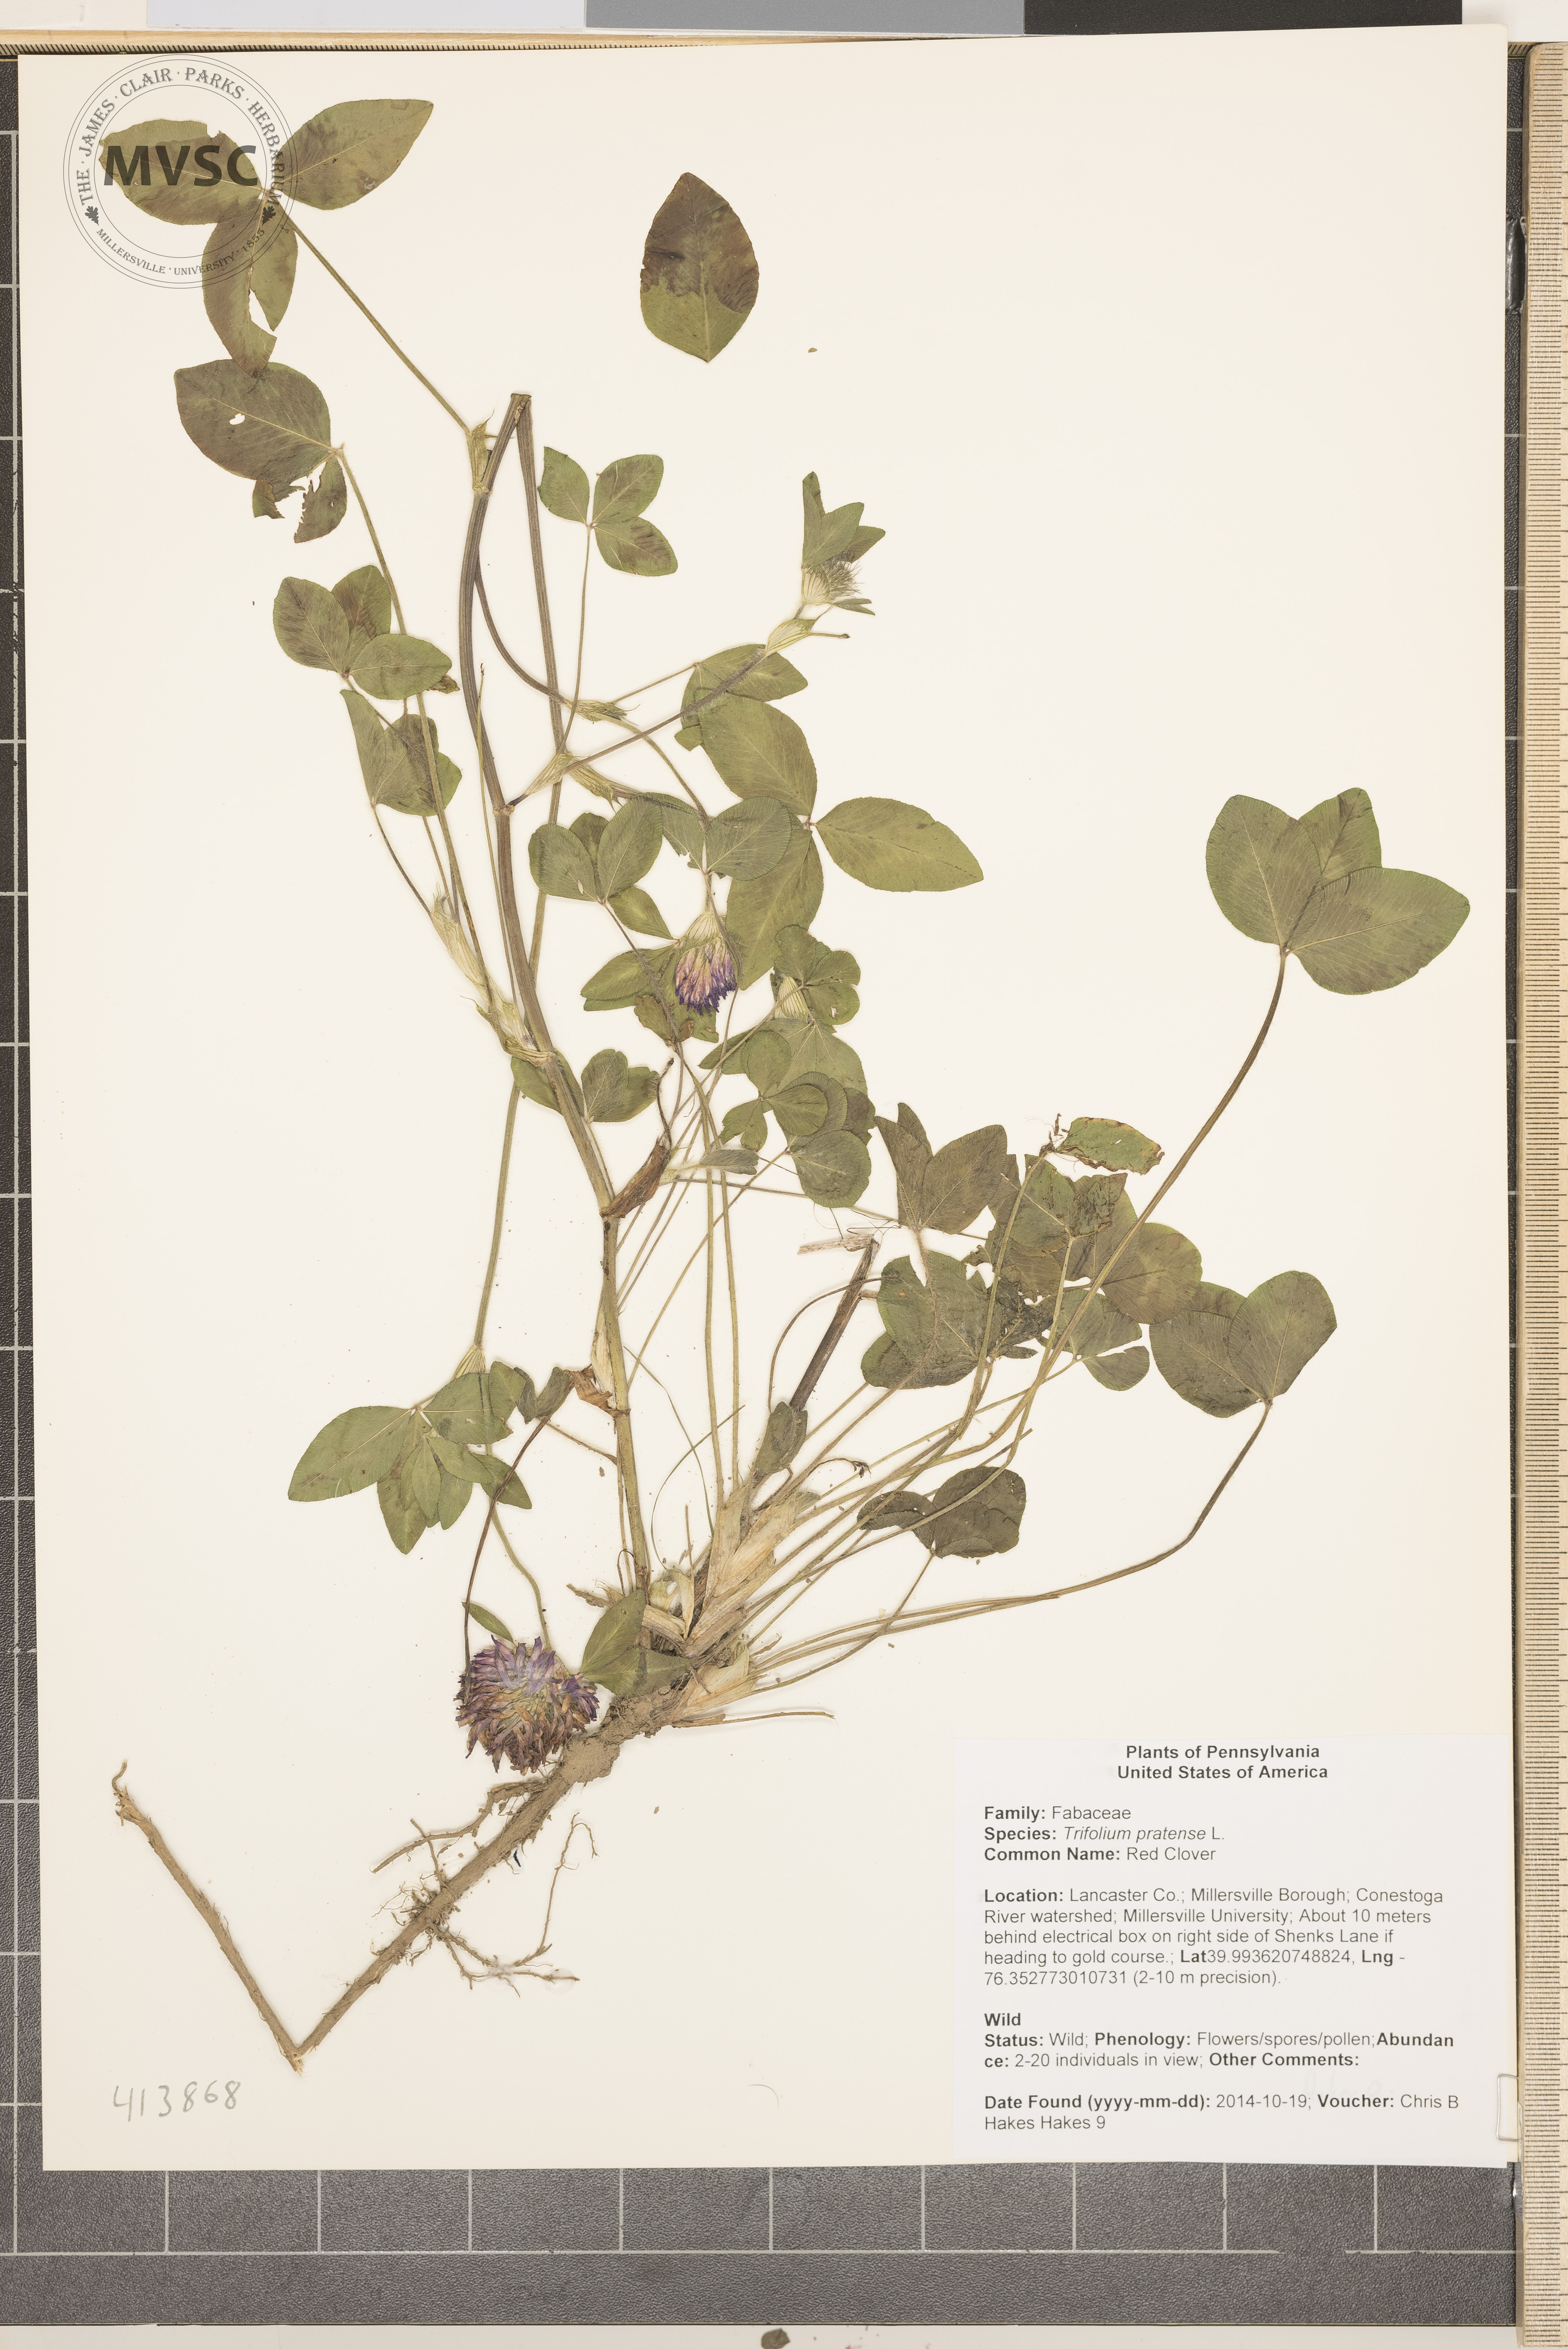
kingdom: Plantae
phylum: Tracheophyta
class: Magnoliopsida
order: Fabales
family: Fabaceae
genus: Trifolium
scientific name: Trifolium pratense
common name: Red Clover
